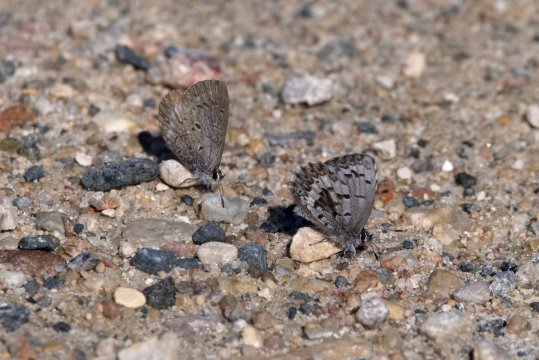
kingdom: Animalia
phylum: Arthropoda
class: Insecta
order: Lepidoptera
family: Lycaenidae
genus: Celastrina
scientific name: Celastrina lucia
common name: Northern Spring Azure
